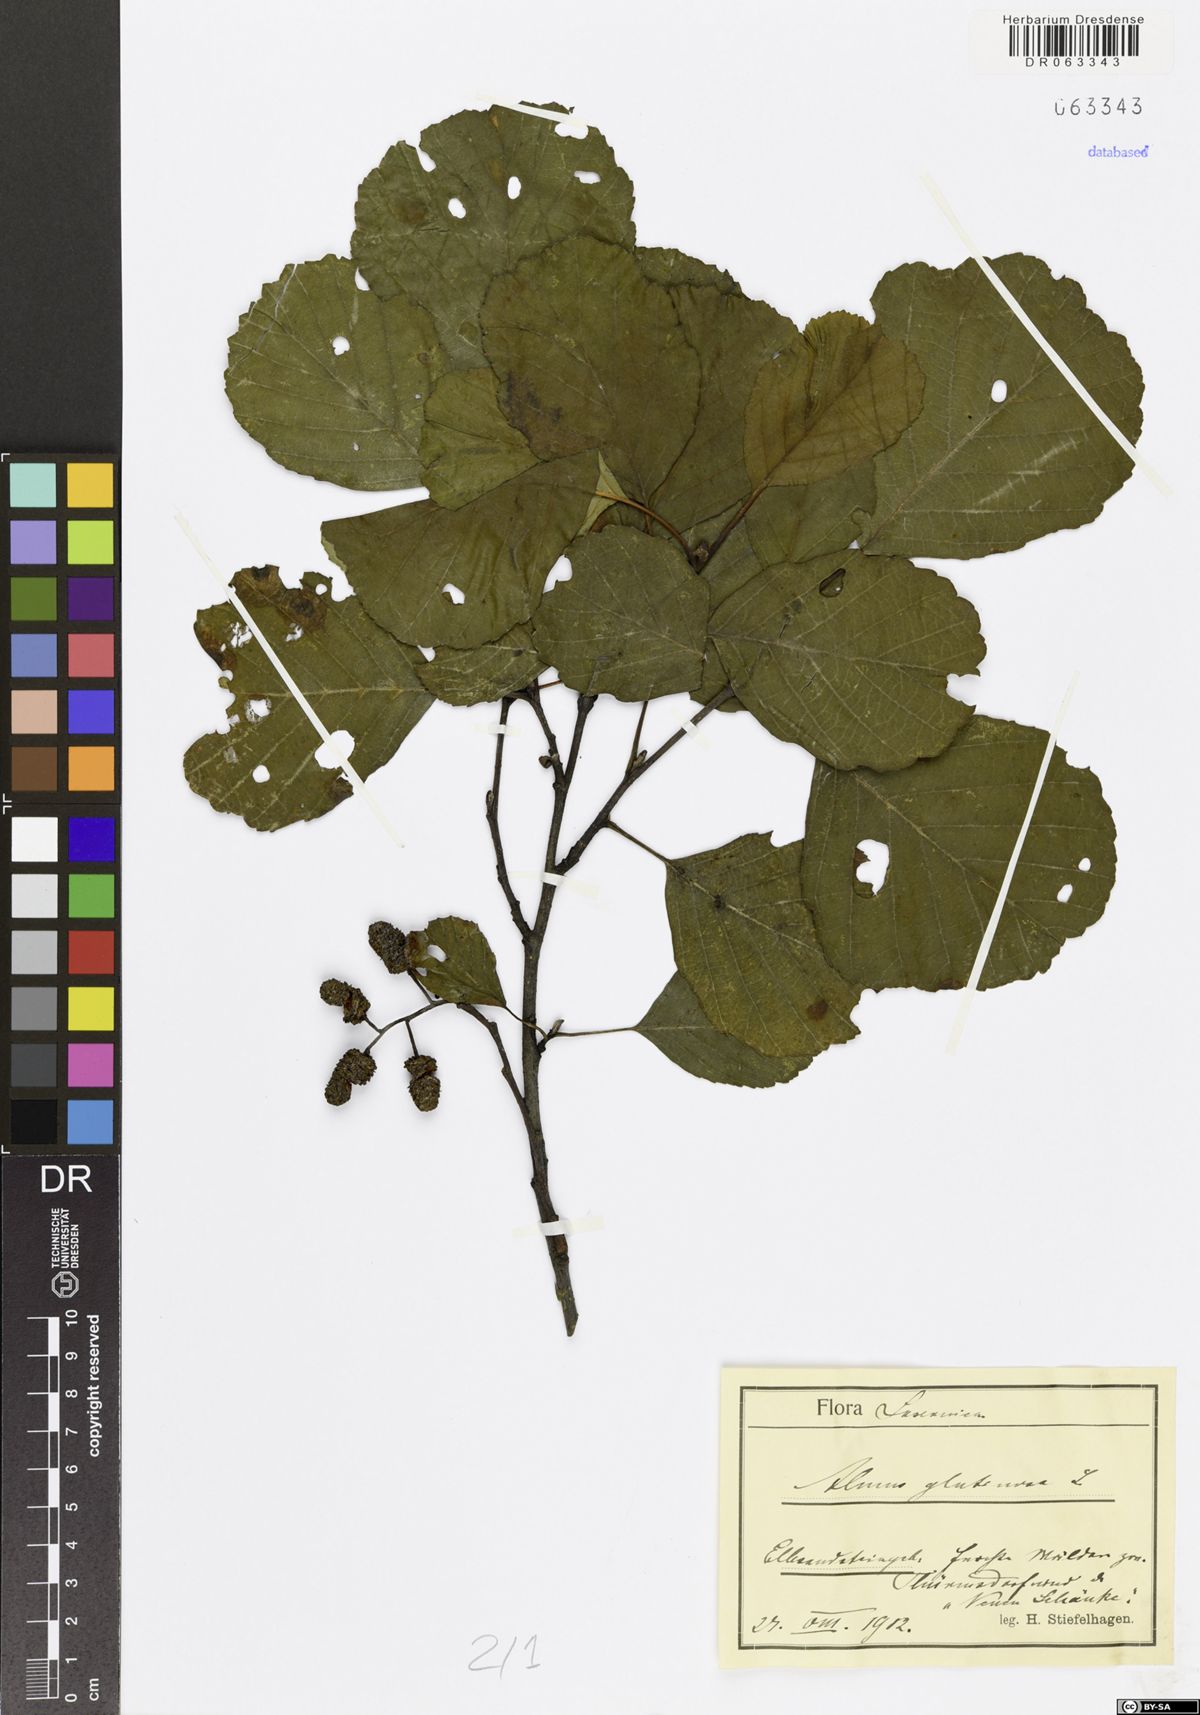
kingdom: Plantae
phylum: Tracheophyta
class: Magnoliopsida
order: Fagales
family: Betulaceae
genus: Alnus
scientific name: Alnus glutinosa
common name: Black alder
